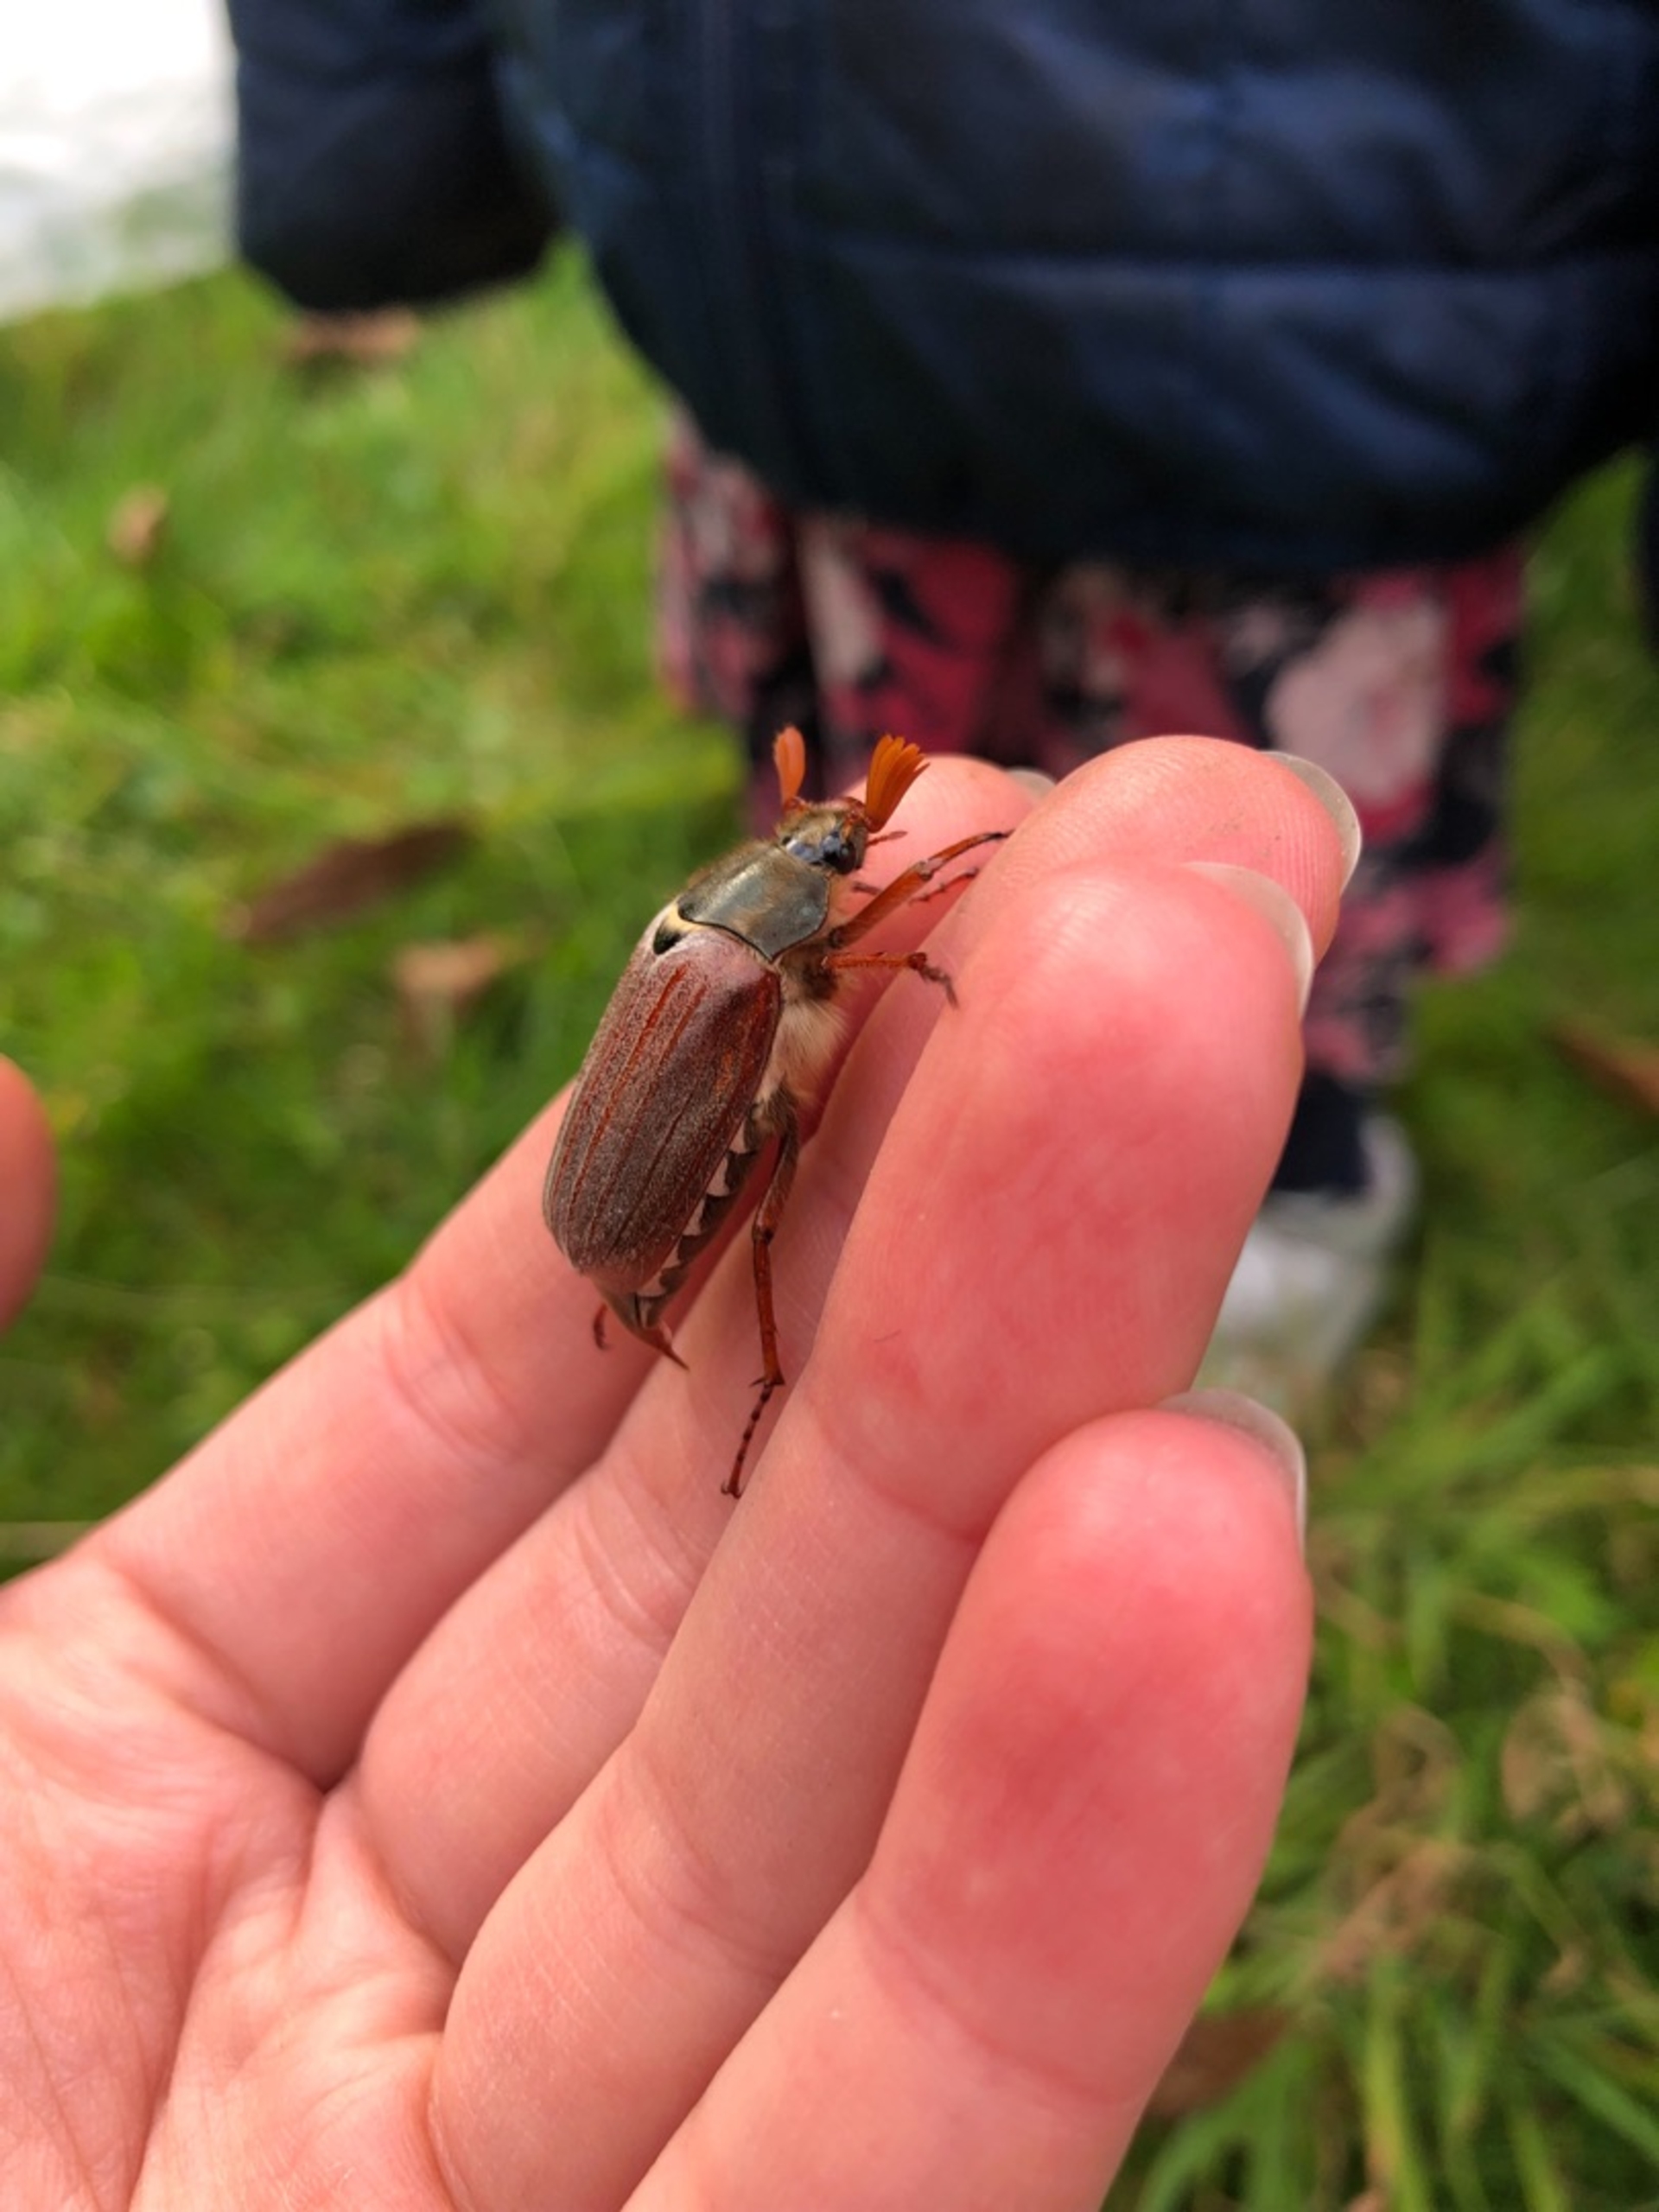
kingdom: Animalia
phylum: Arthropoda
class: Insecta
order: Coleoptera
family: Scarabaeidae
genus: Melolontha
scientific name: Melolontha melolontha
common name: Almindelig oldenborre
